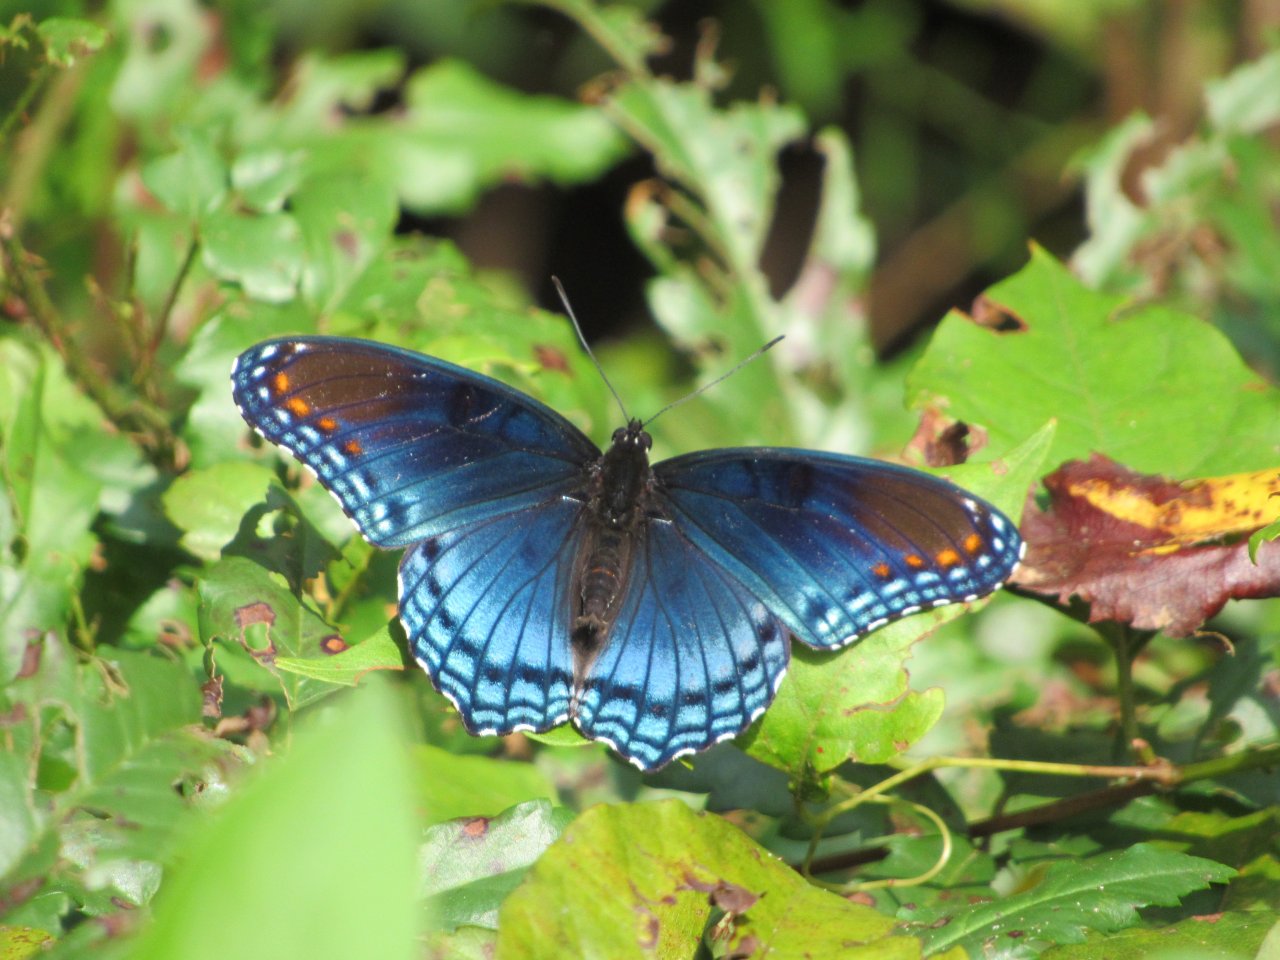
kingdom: Animalia
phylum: Arthropoda
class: Insecta
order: Lepidoptera
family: Nymphalidae
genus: Limenitis
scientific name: Limenitis astyanax
